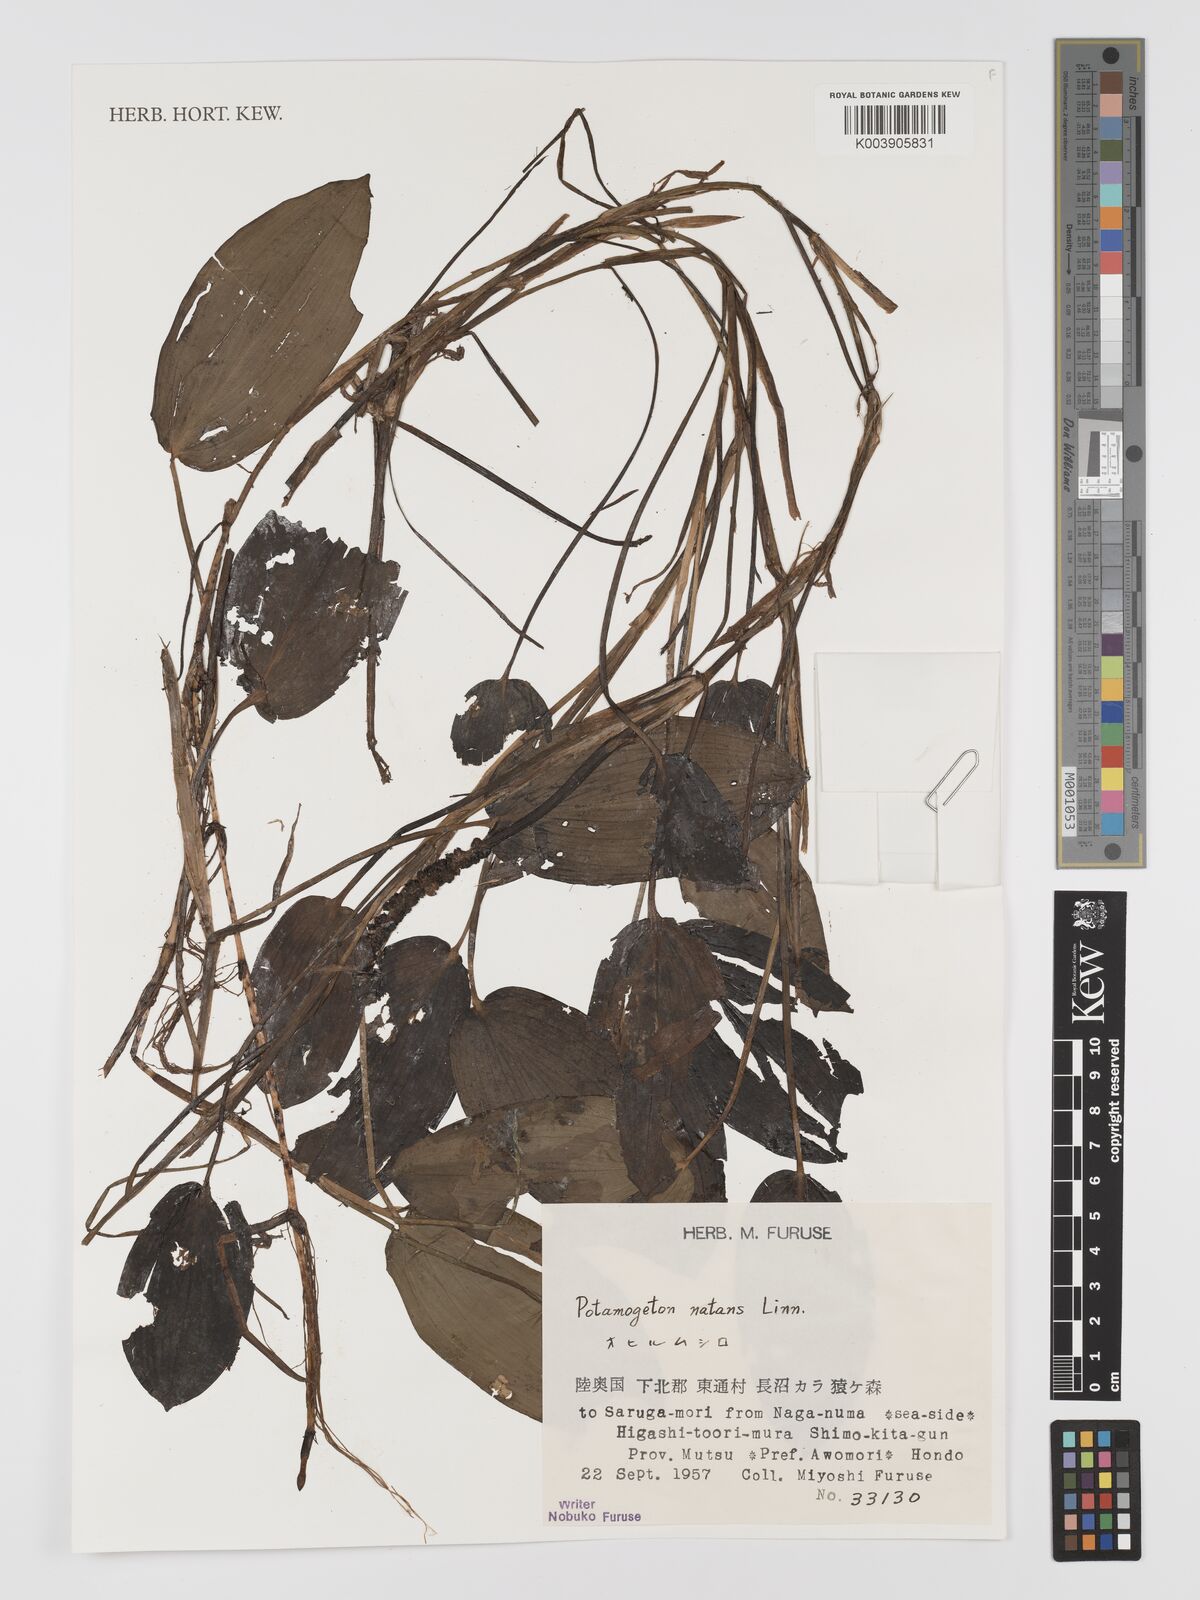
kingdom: Plantae
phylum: Tracheophyta
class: Liliopsida
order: Alismatales
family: Potamogetonaceae
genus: Potamogeton
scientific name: Potamogeton natans
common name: Broad-leaved pondweed
